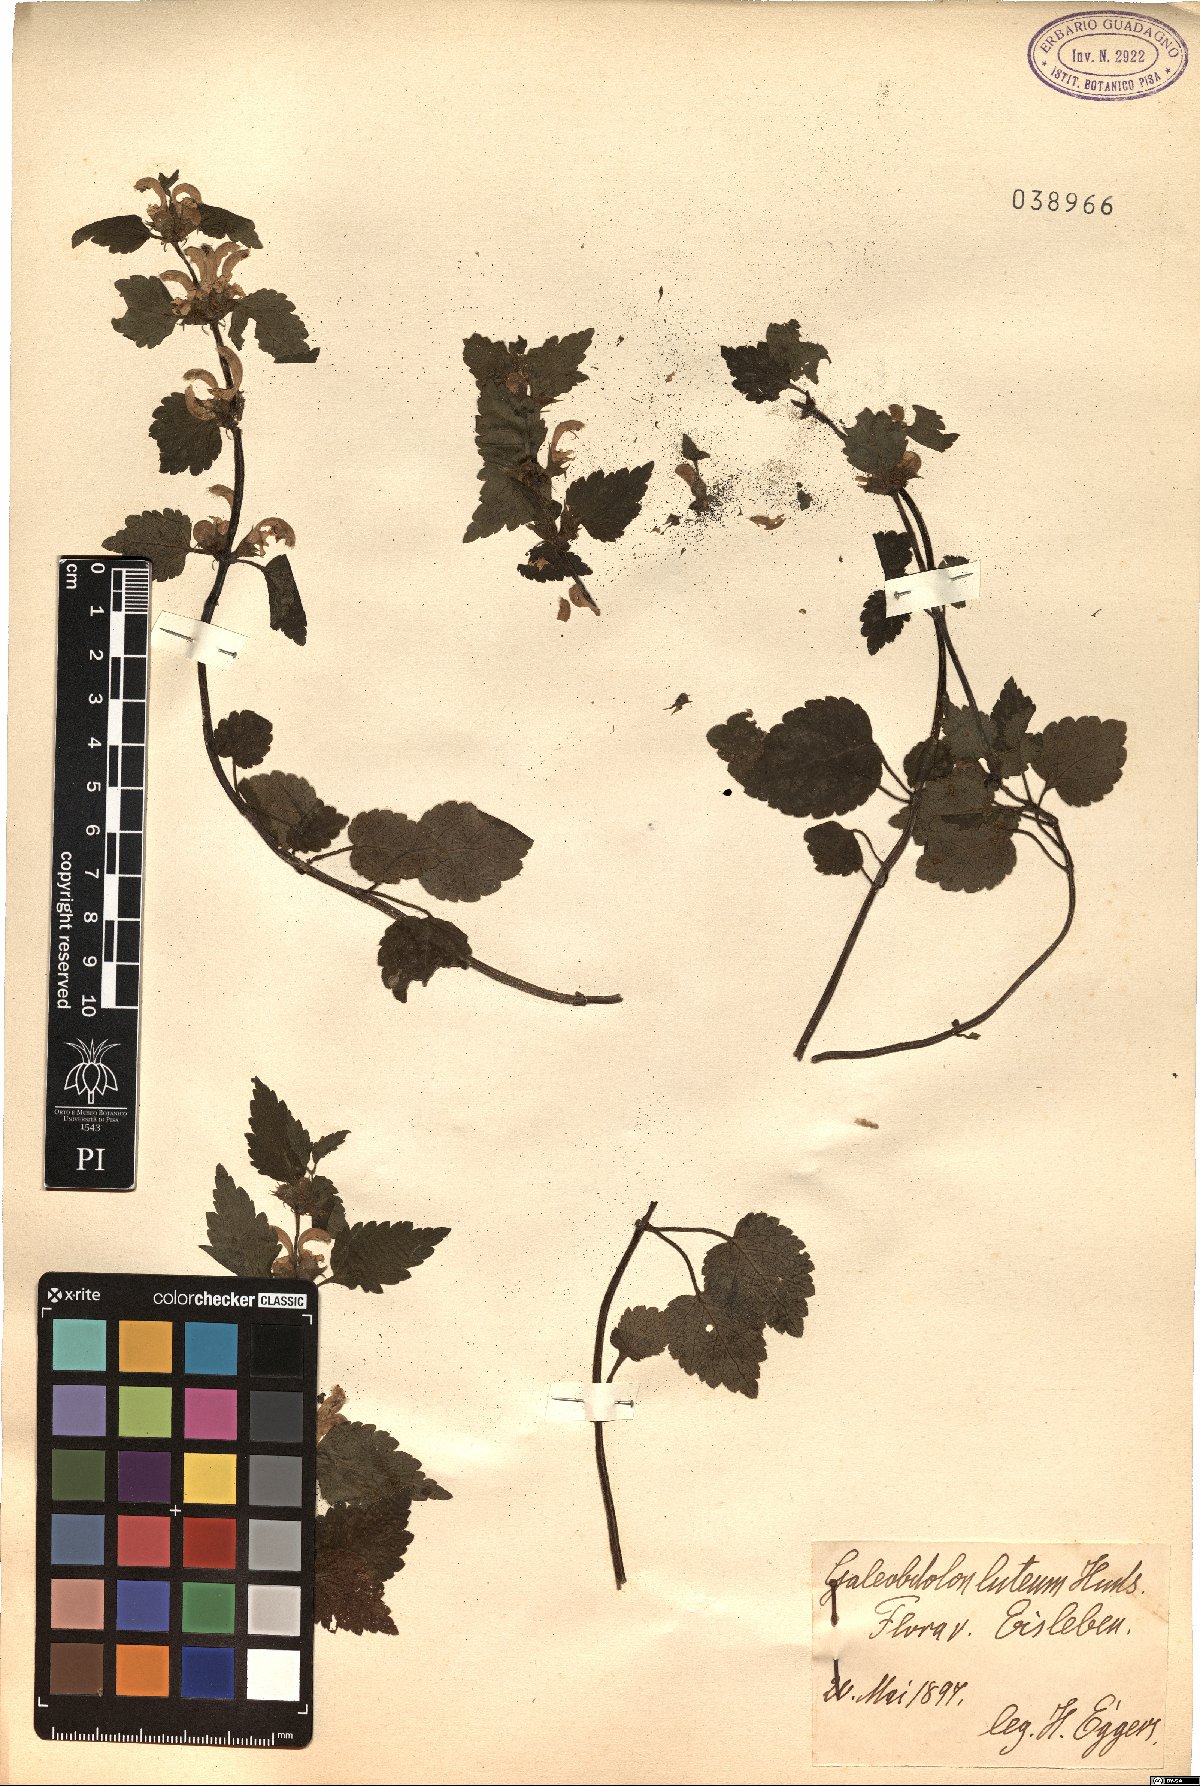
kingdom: Plantae
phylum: Tracheophyta
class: Magnoliopsida
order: Lamiales
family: Lamiaceae
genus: Lamium
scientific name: Lamium galeobdolon
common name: Yellow archangel
